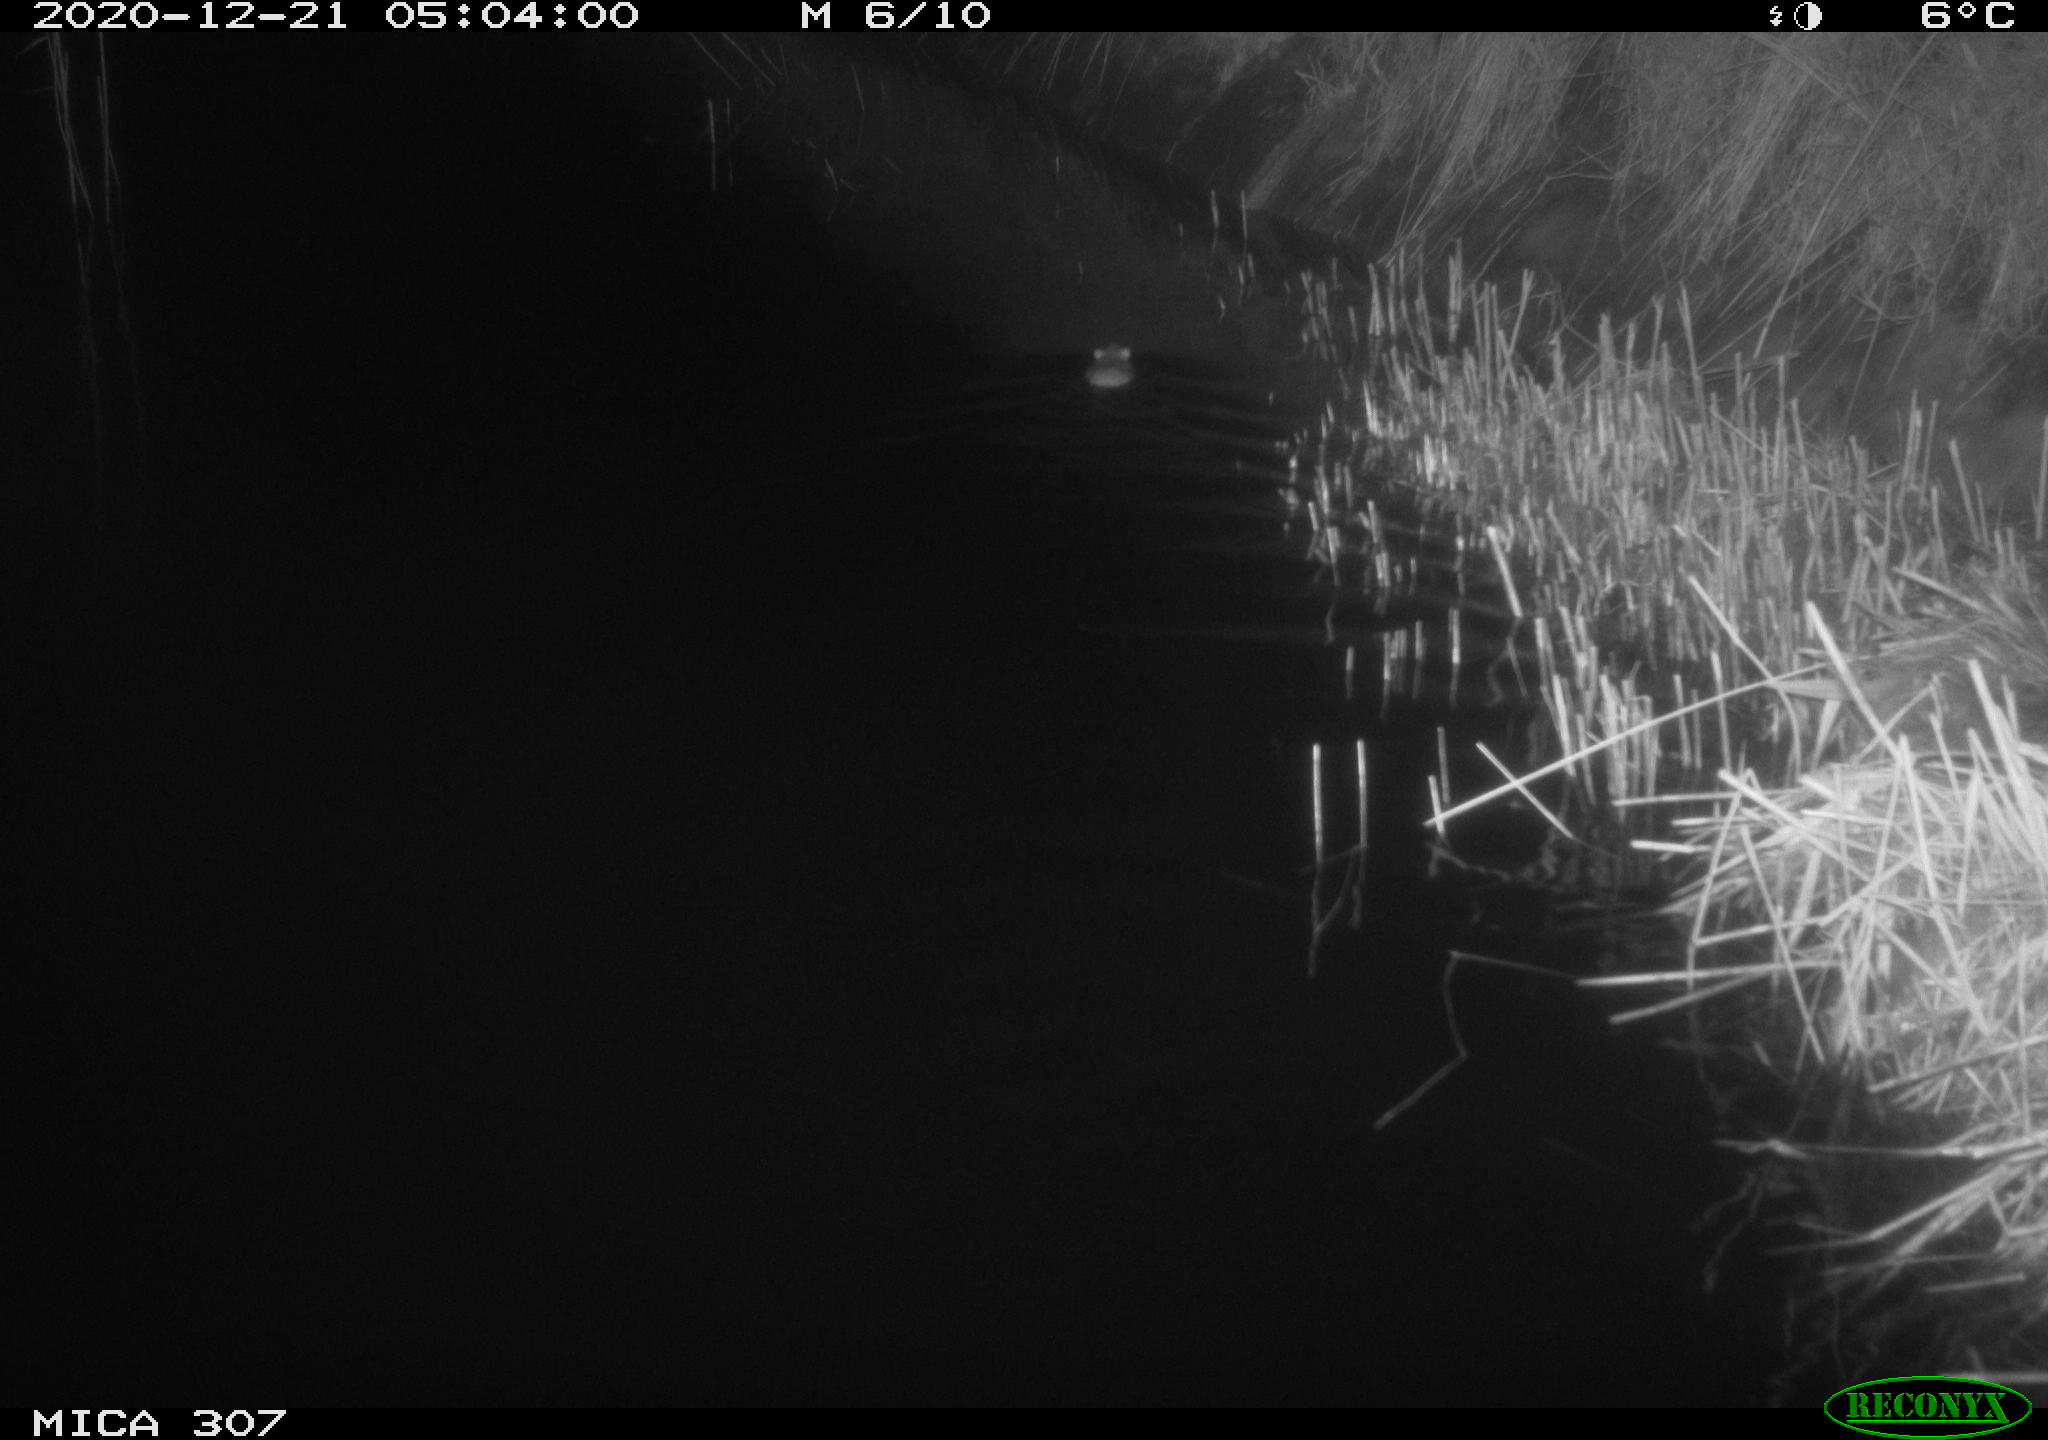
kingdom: Animalia
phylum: Chordata
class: Mammalia
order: Rodentia
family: Muridae
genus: Rattus
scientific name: Rattus norvegicus
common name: Brown rat
